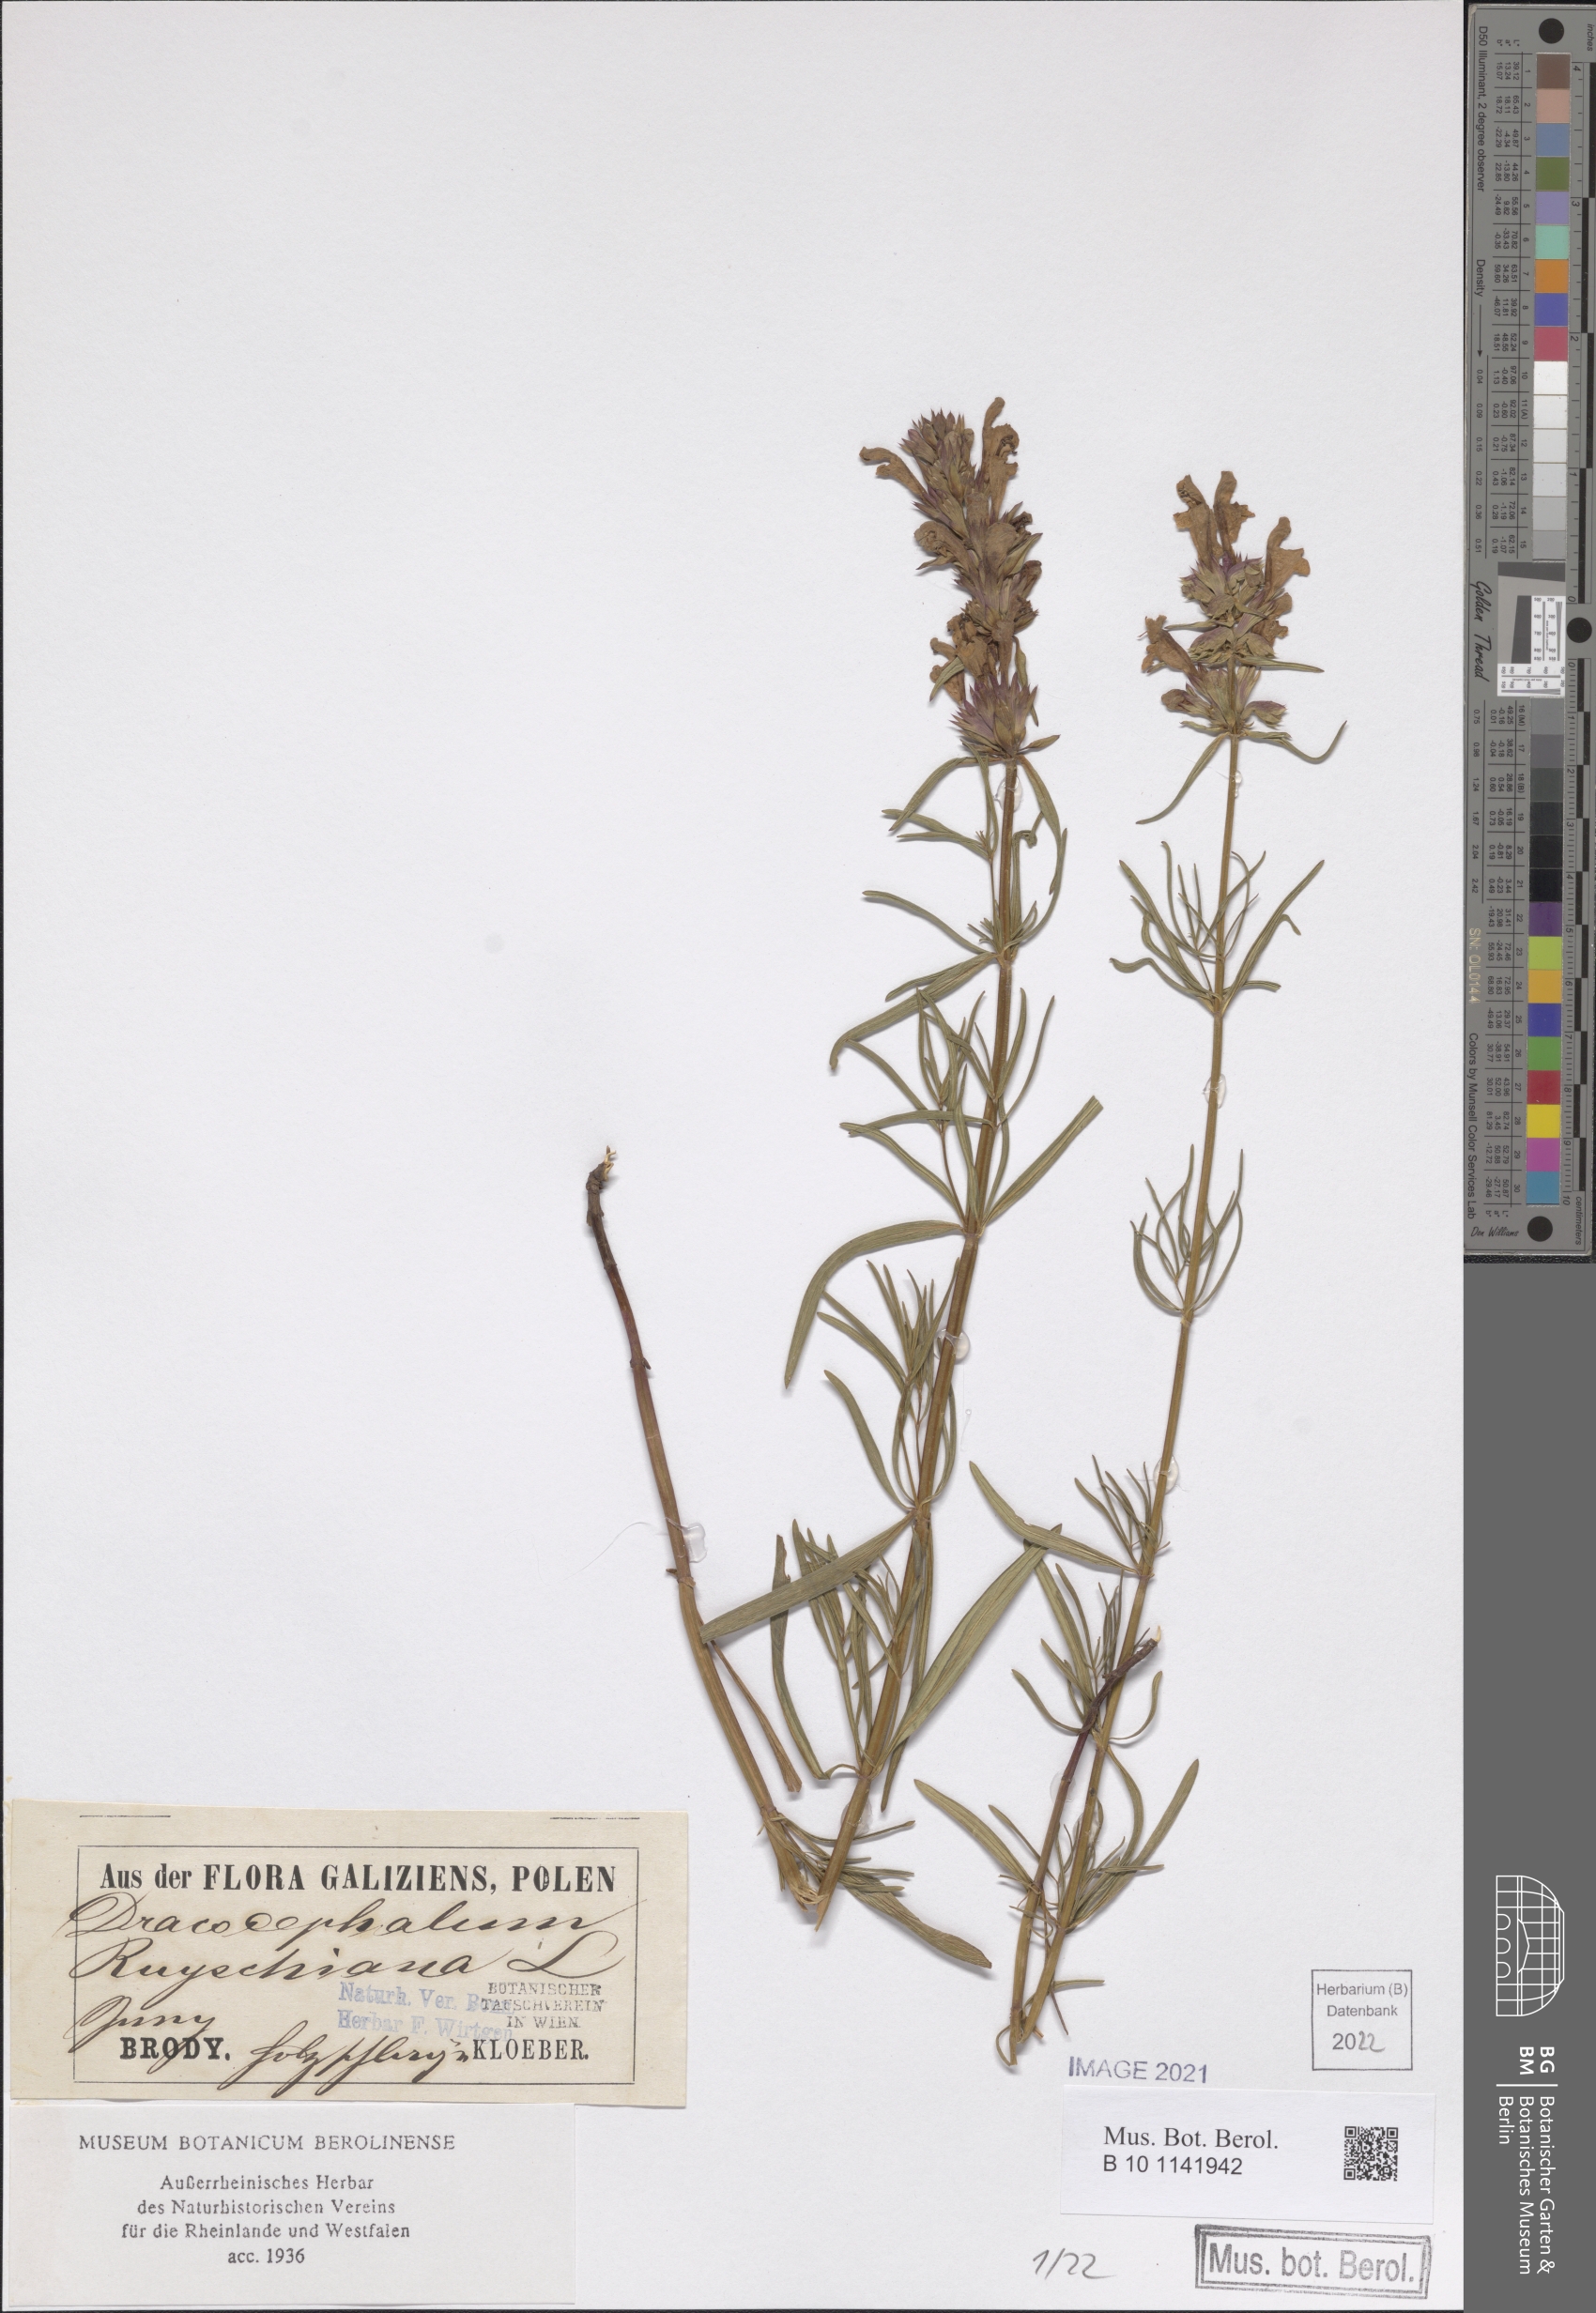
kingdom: Plantae
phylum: Tracheophyta
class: Magnoliopsida
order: Lamiales
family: Lamiaceae
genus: Dracocephalum
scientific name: Dracocephalum ruyschiana
